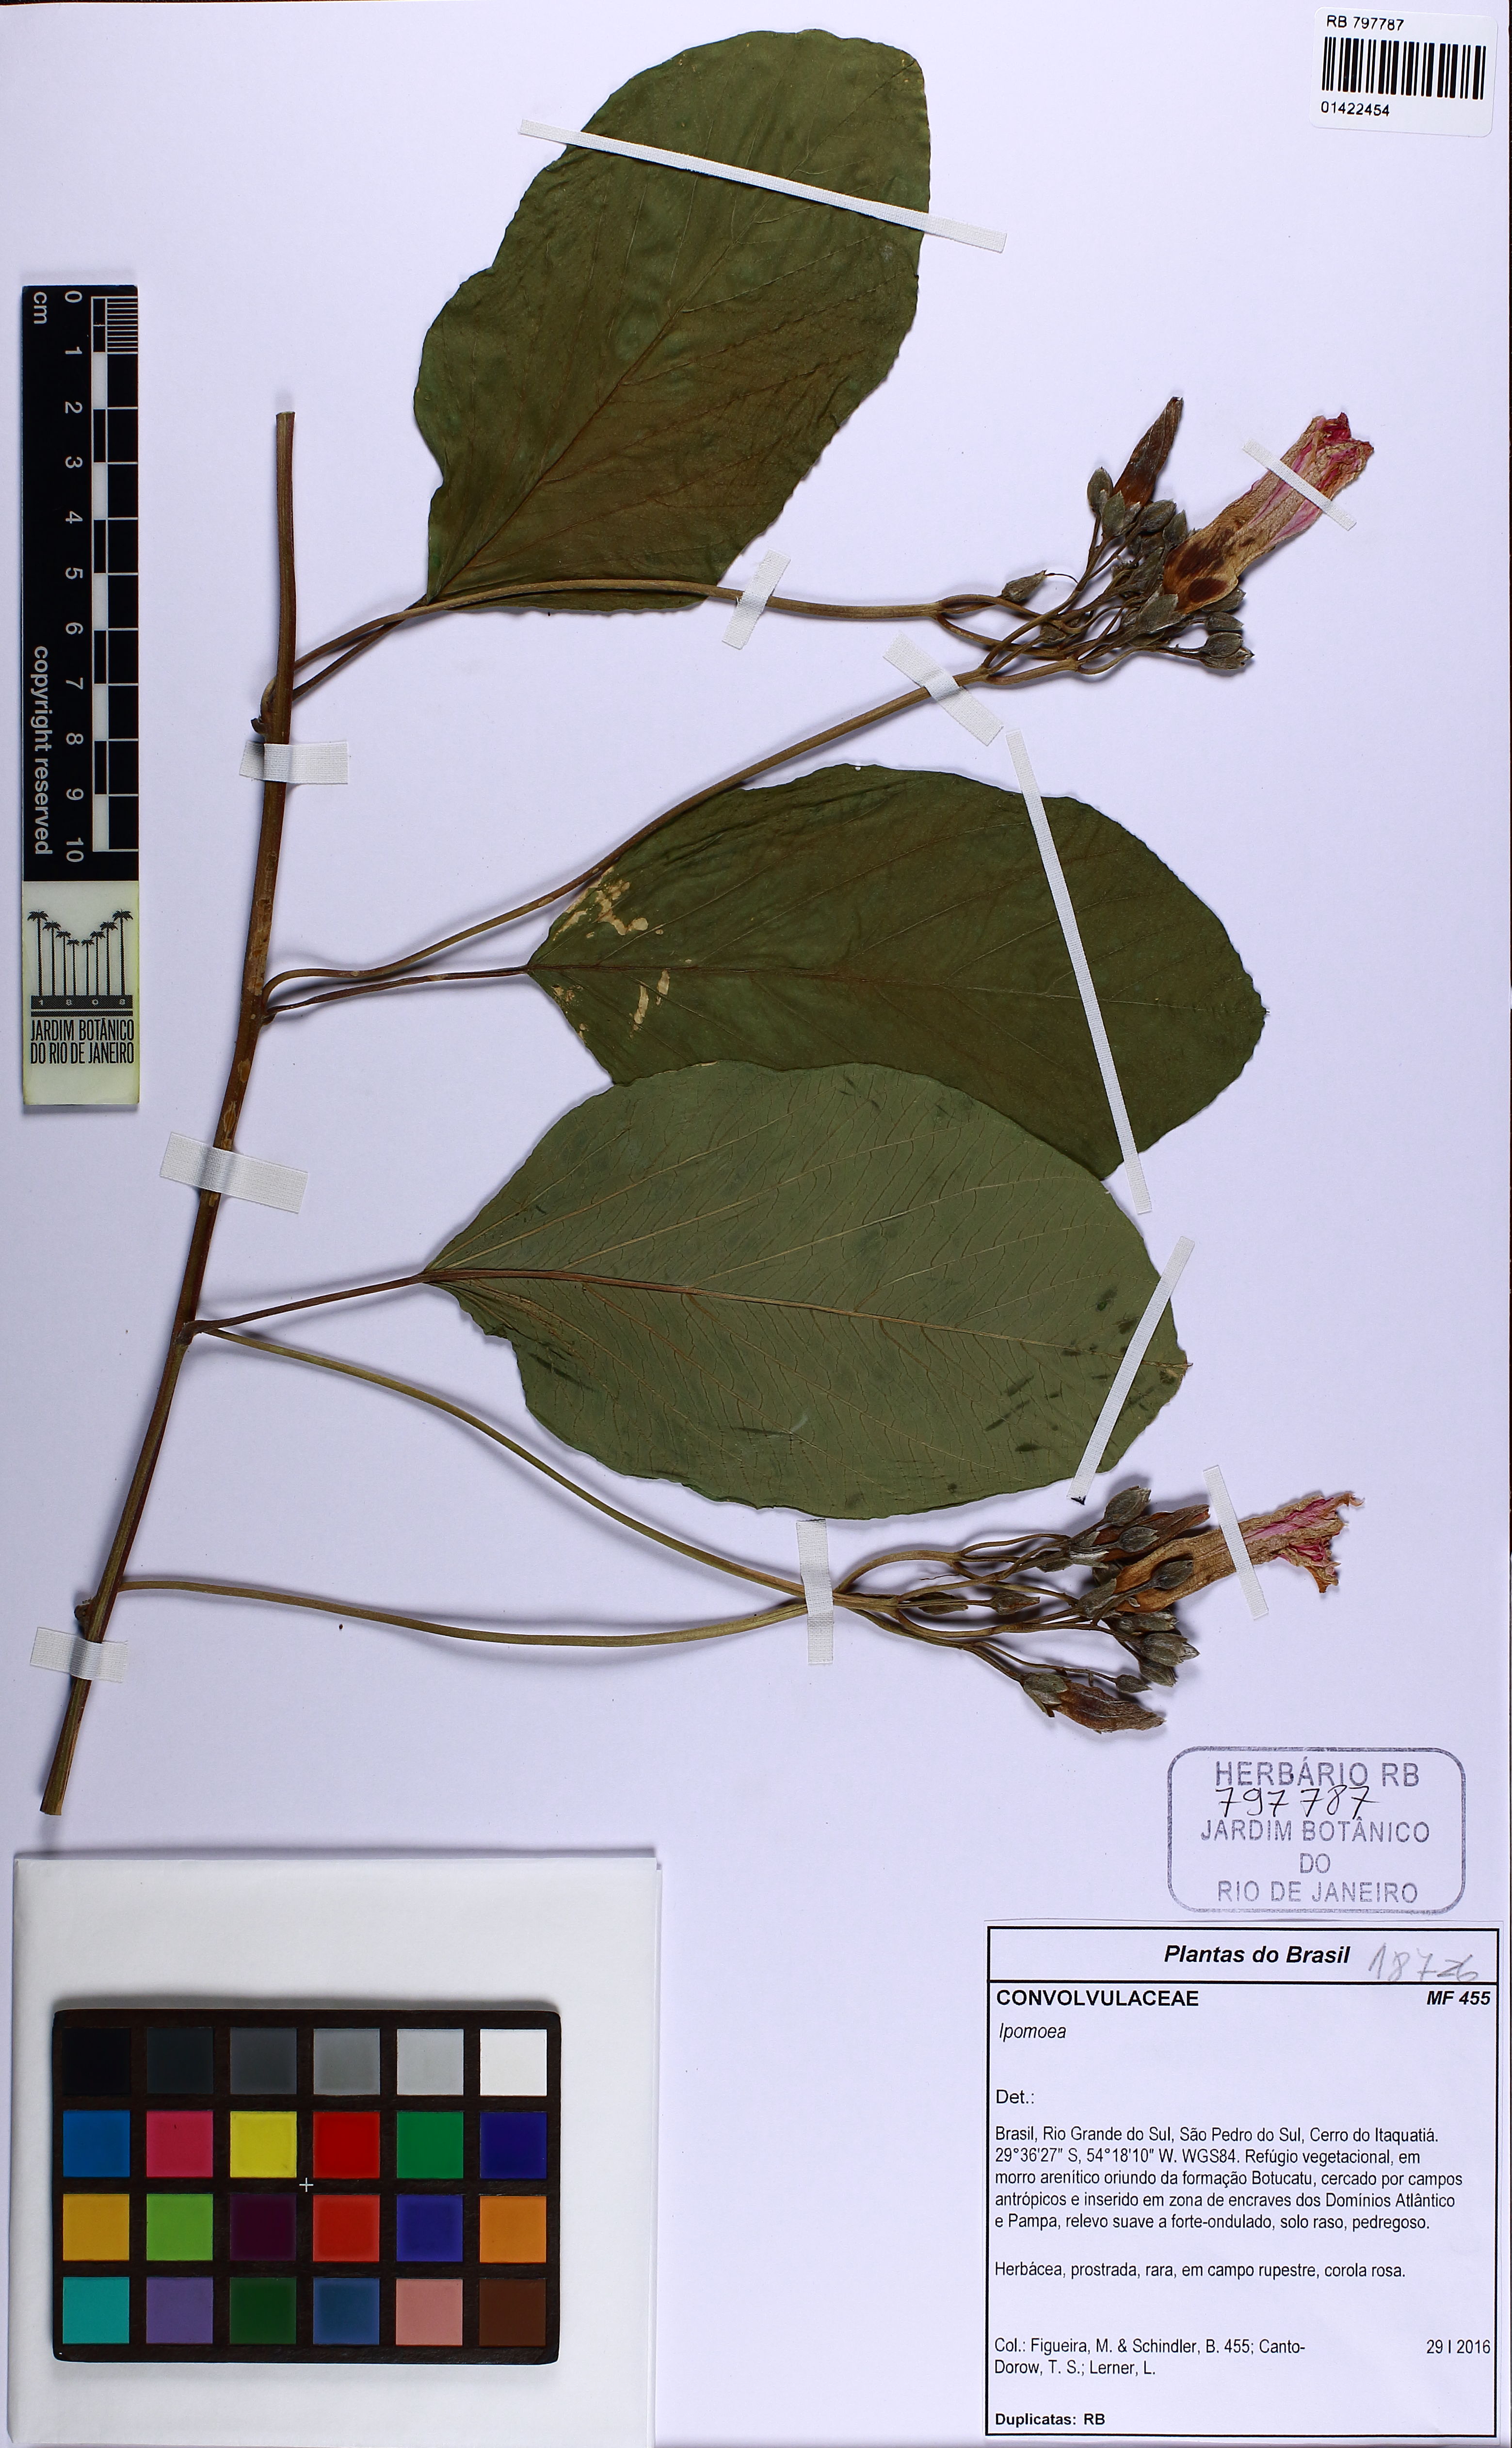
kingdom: Plantae
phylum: Tracheophyta
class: Magnoliopsida
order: Solanales
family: Convolvulaceae
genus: Ipomoea
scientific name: Ipomoea
